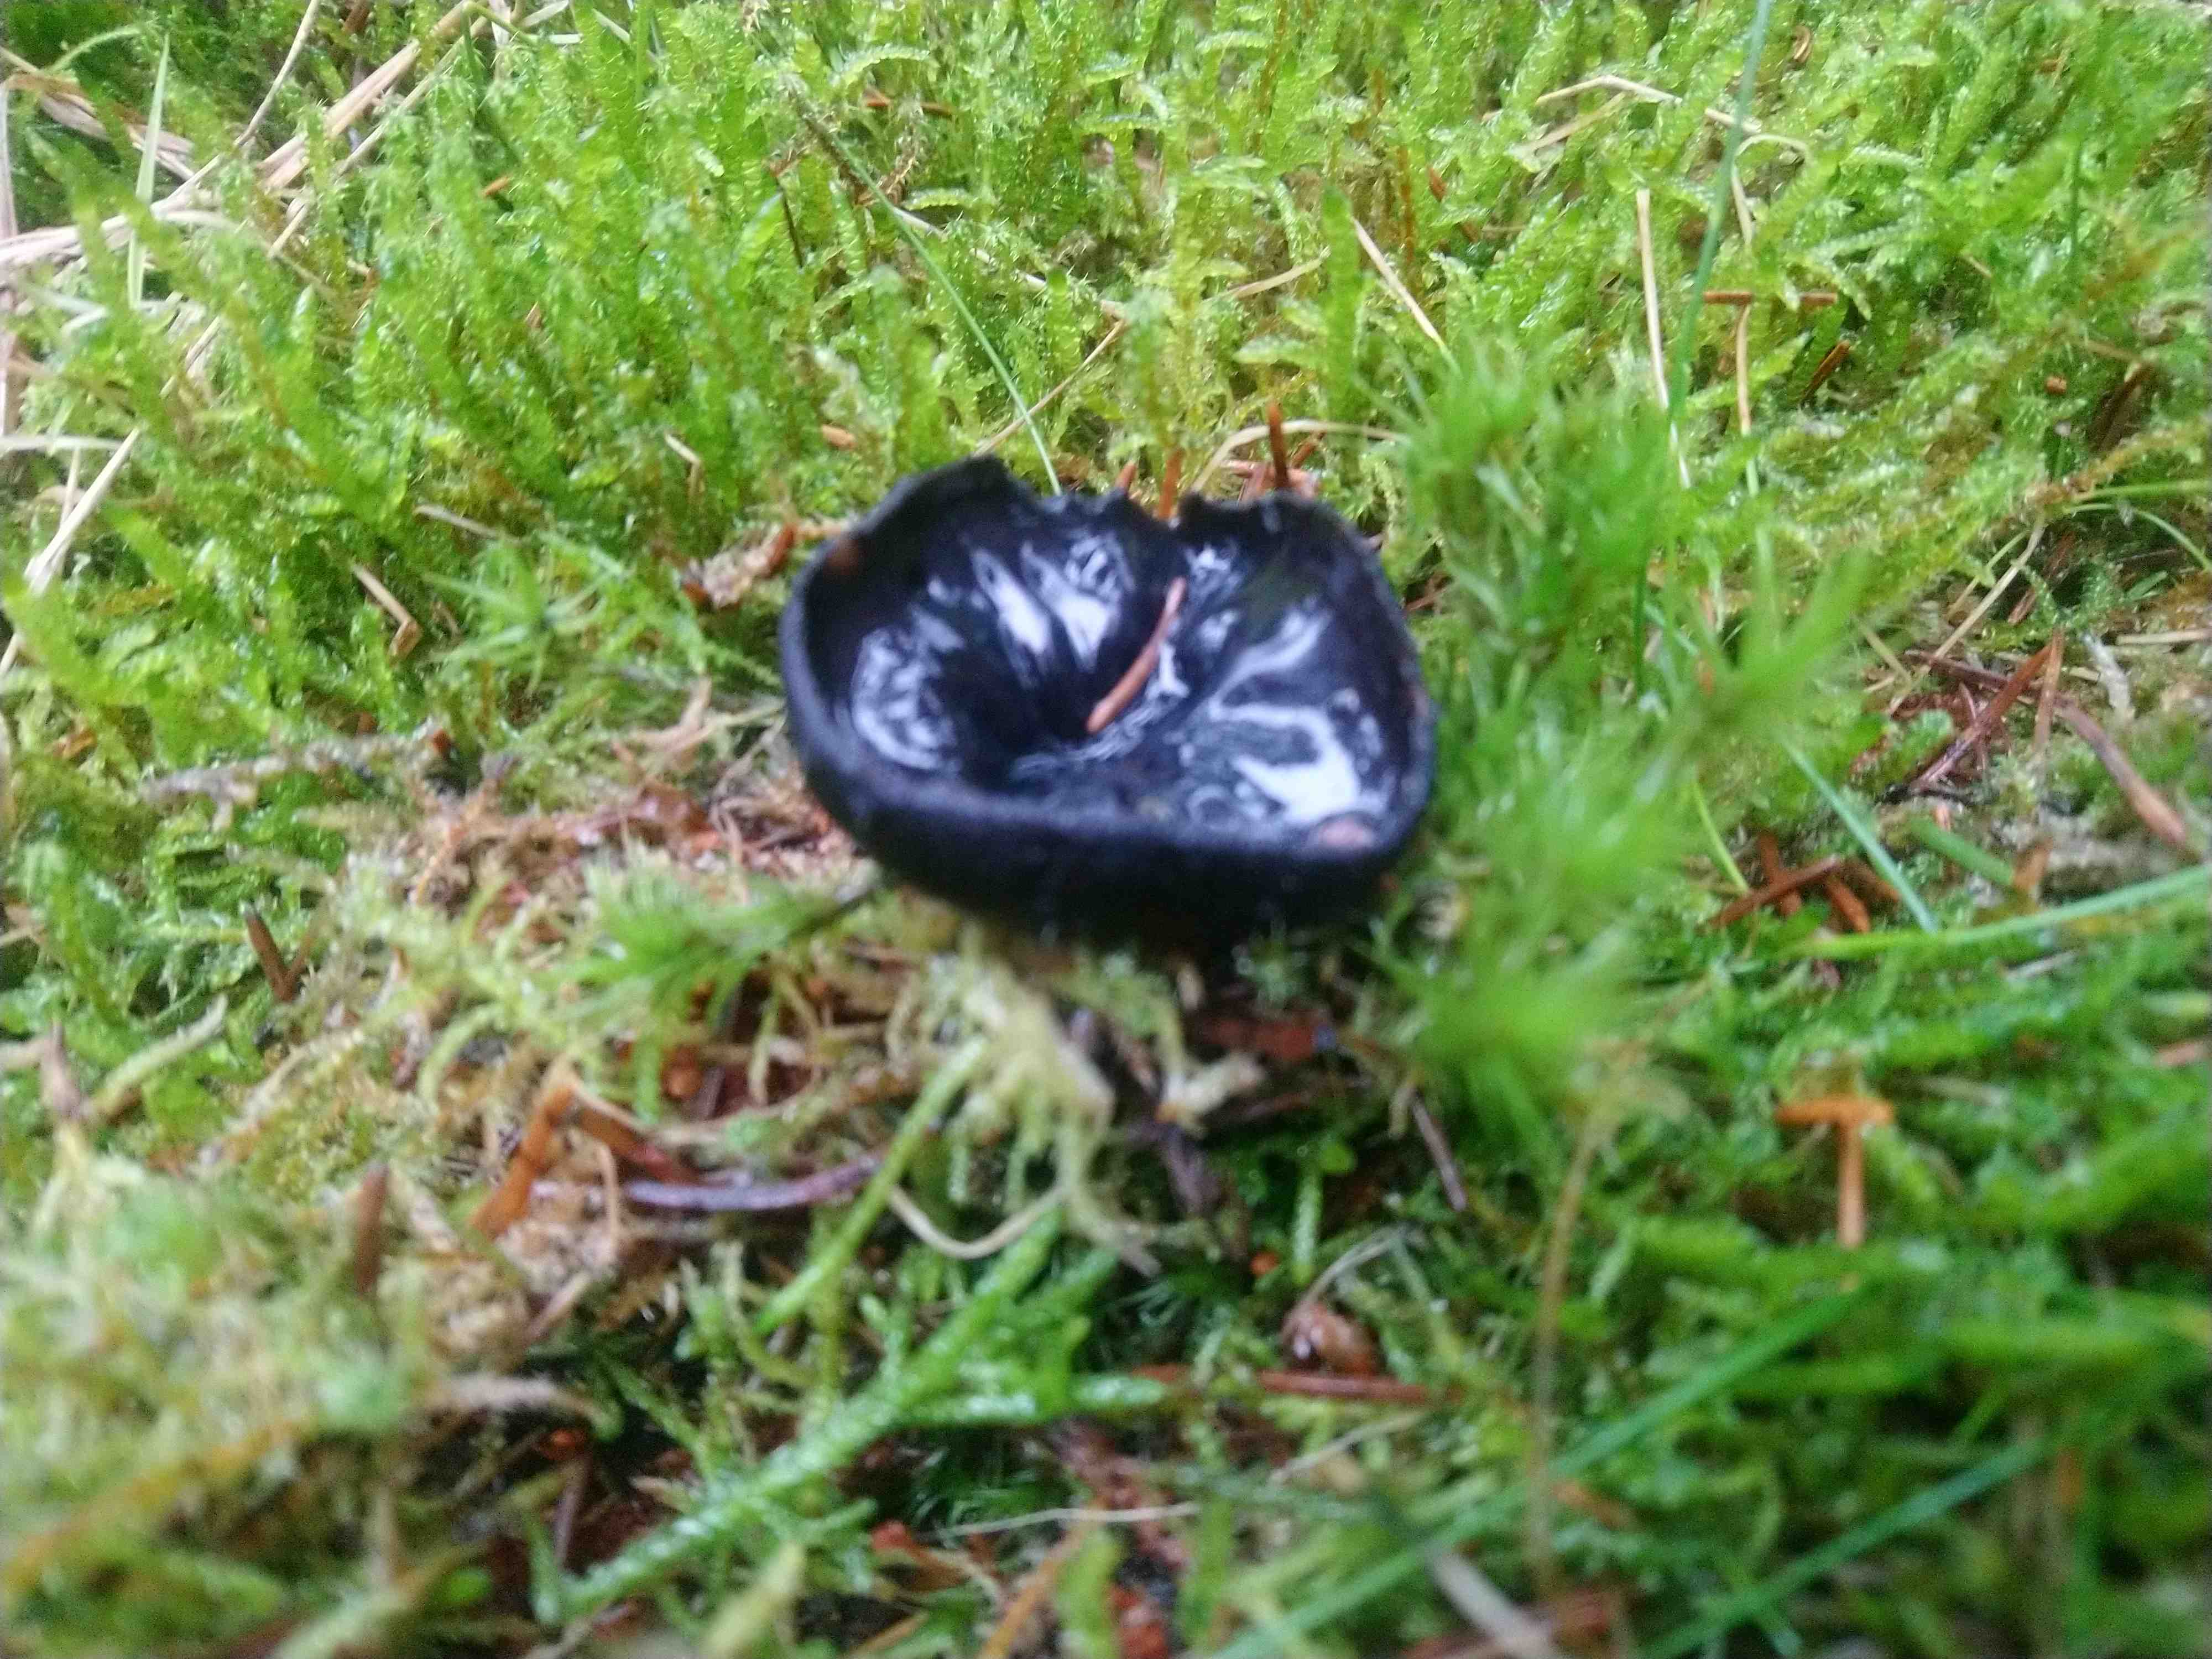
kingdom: Fungi
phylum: Ascomycota
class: Pezizomycetes
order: Pezizales
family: Sarcosomataceae
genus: Pseudoplectania
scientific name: Pseudoplectania nigrella
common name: almindelig sortbæger
